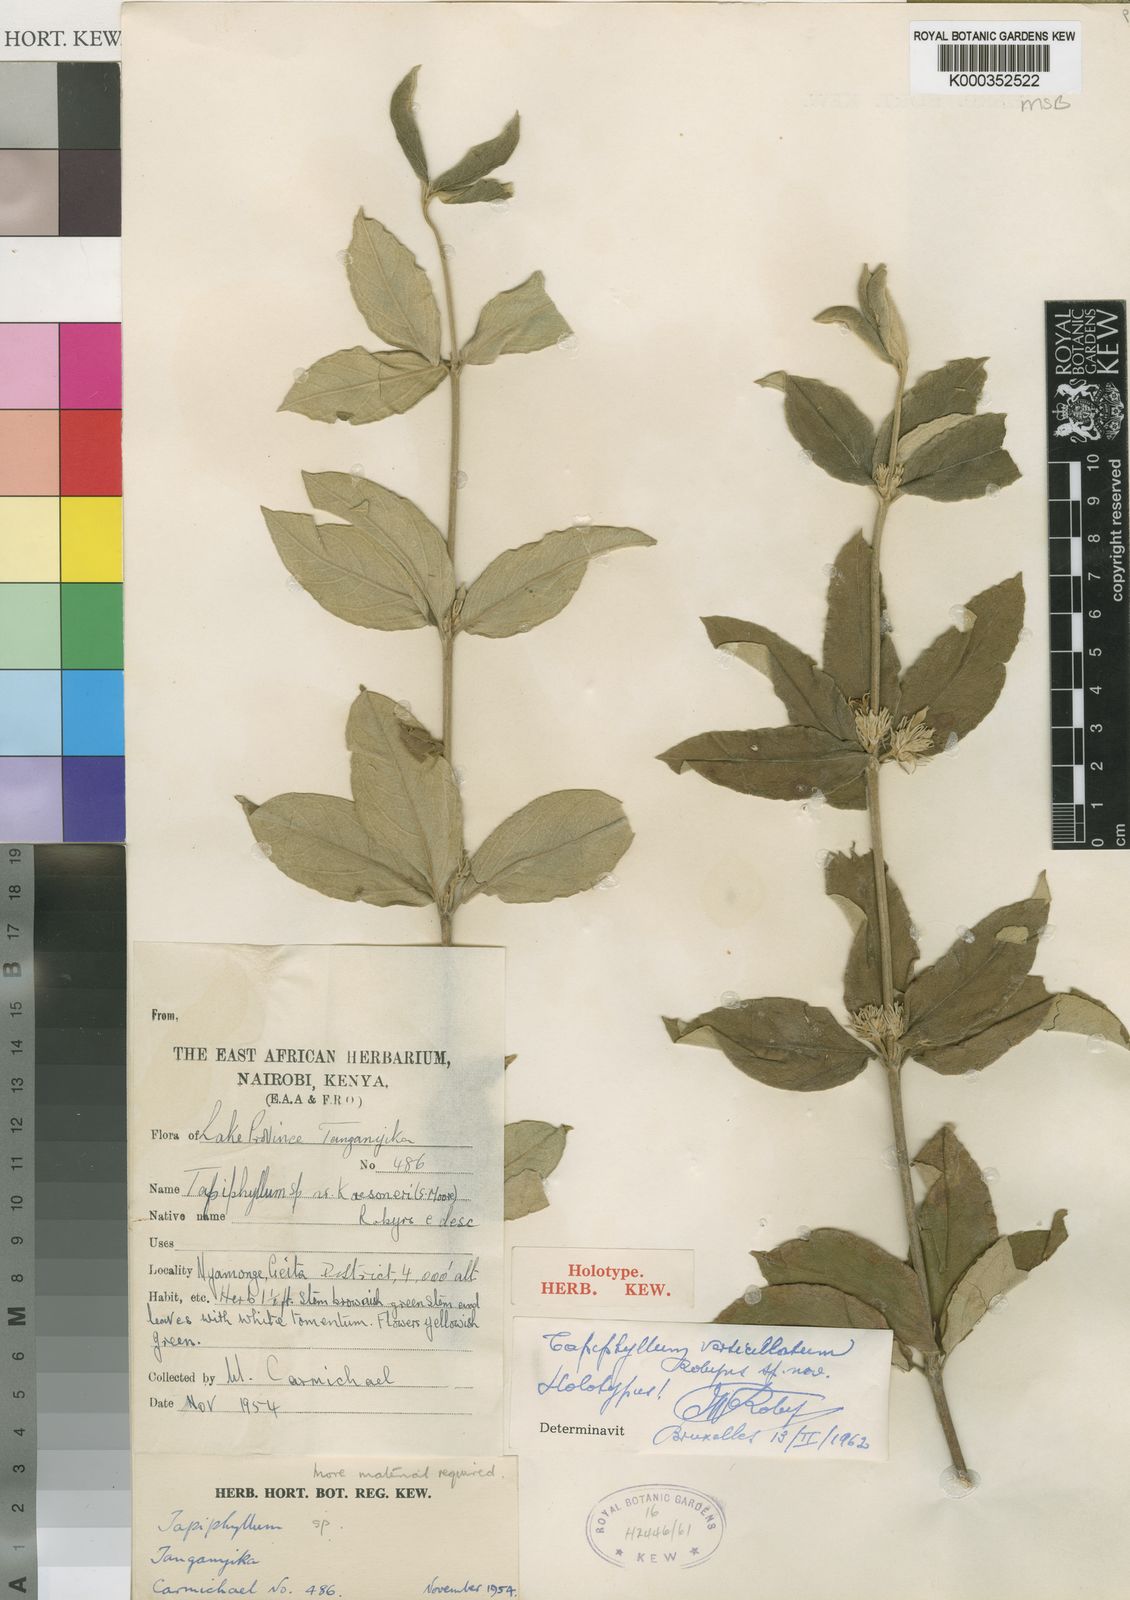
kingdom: Plantae
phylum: Tracheophyta
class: Magnoliopsida
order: Gentianales
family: Rubiaceae
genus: Vangueria
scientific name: Vangueria verticillata
